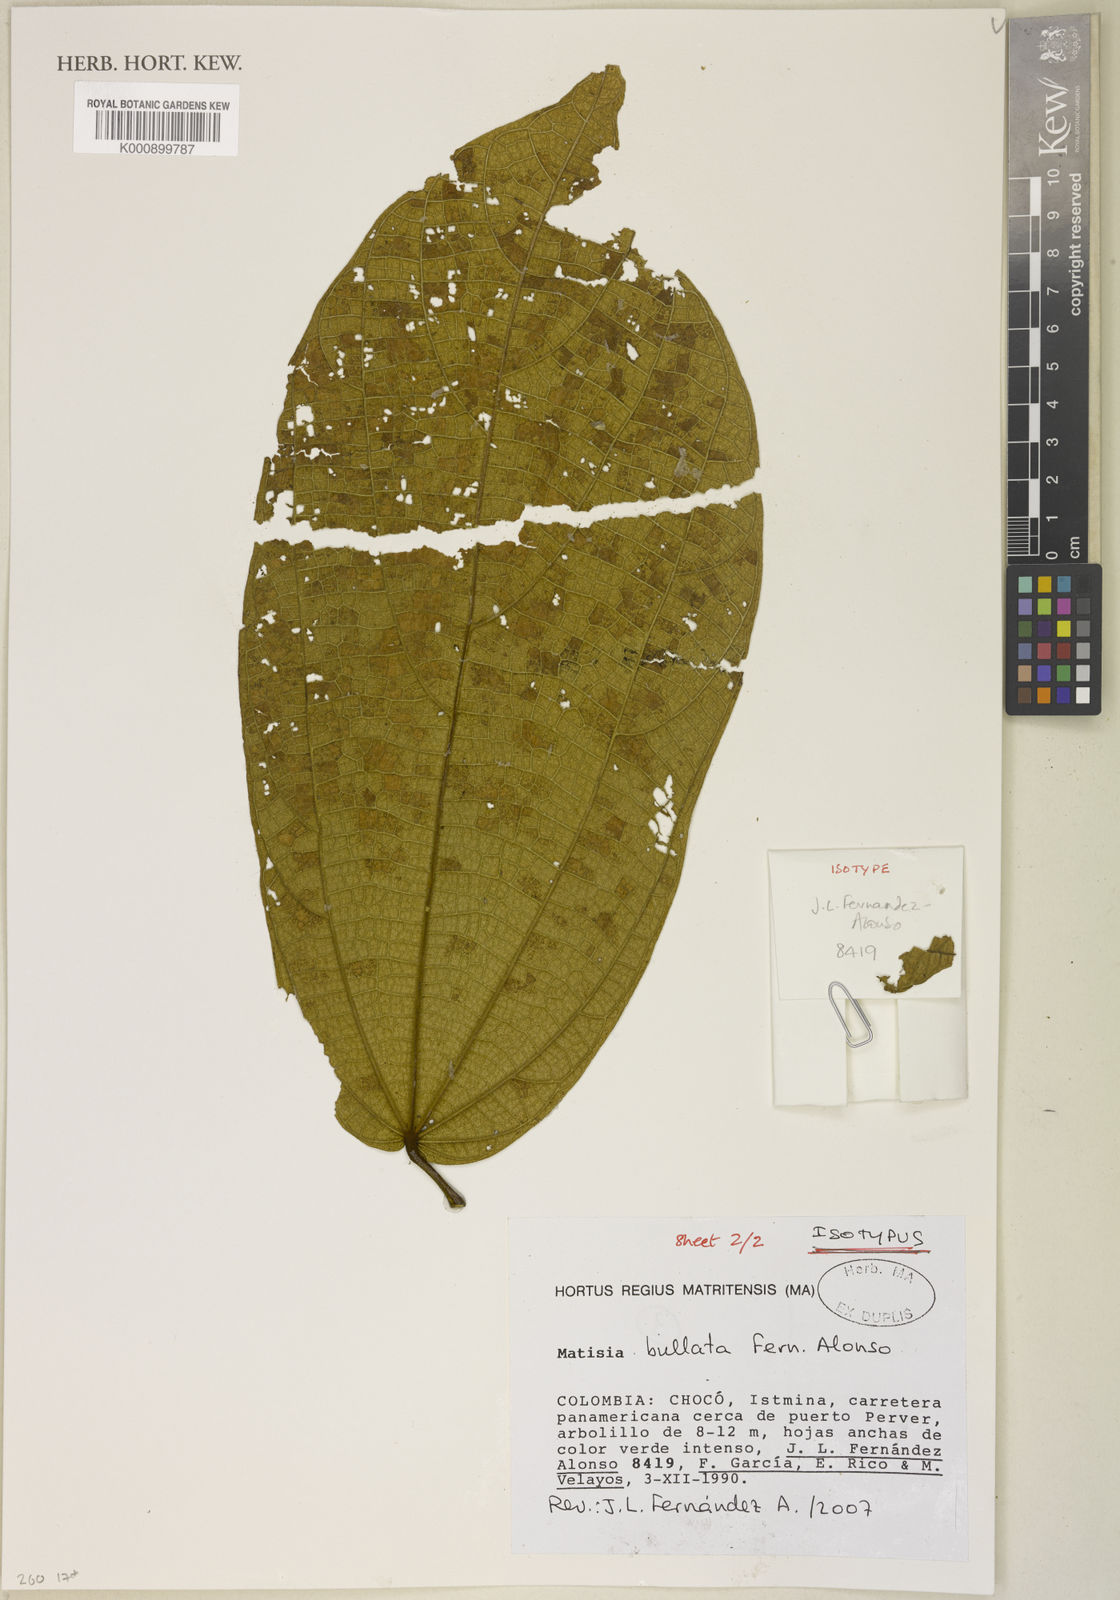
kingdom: Plantae
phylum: Tracheophyta
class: Magnoliopsida
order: Malvales
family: Malvaceae
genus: Matisia
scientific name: Matisia bullata
